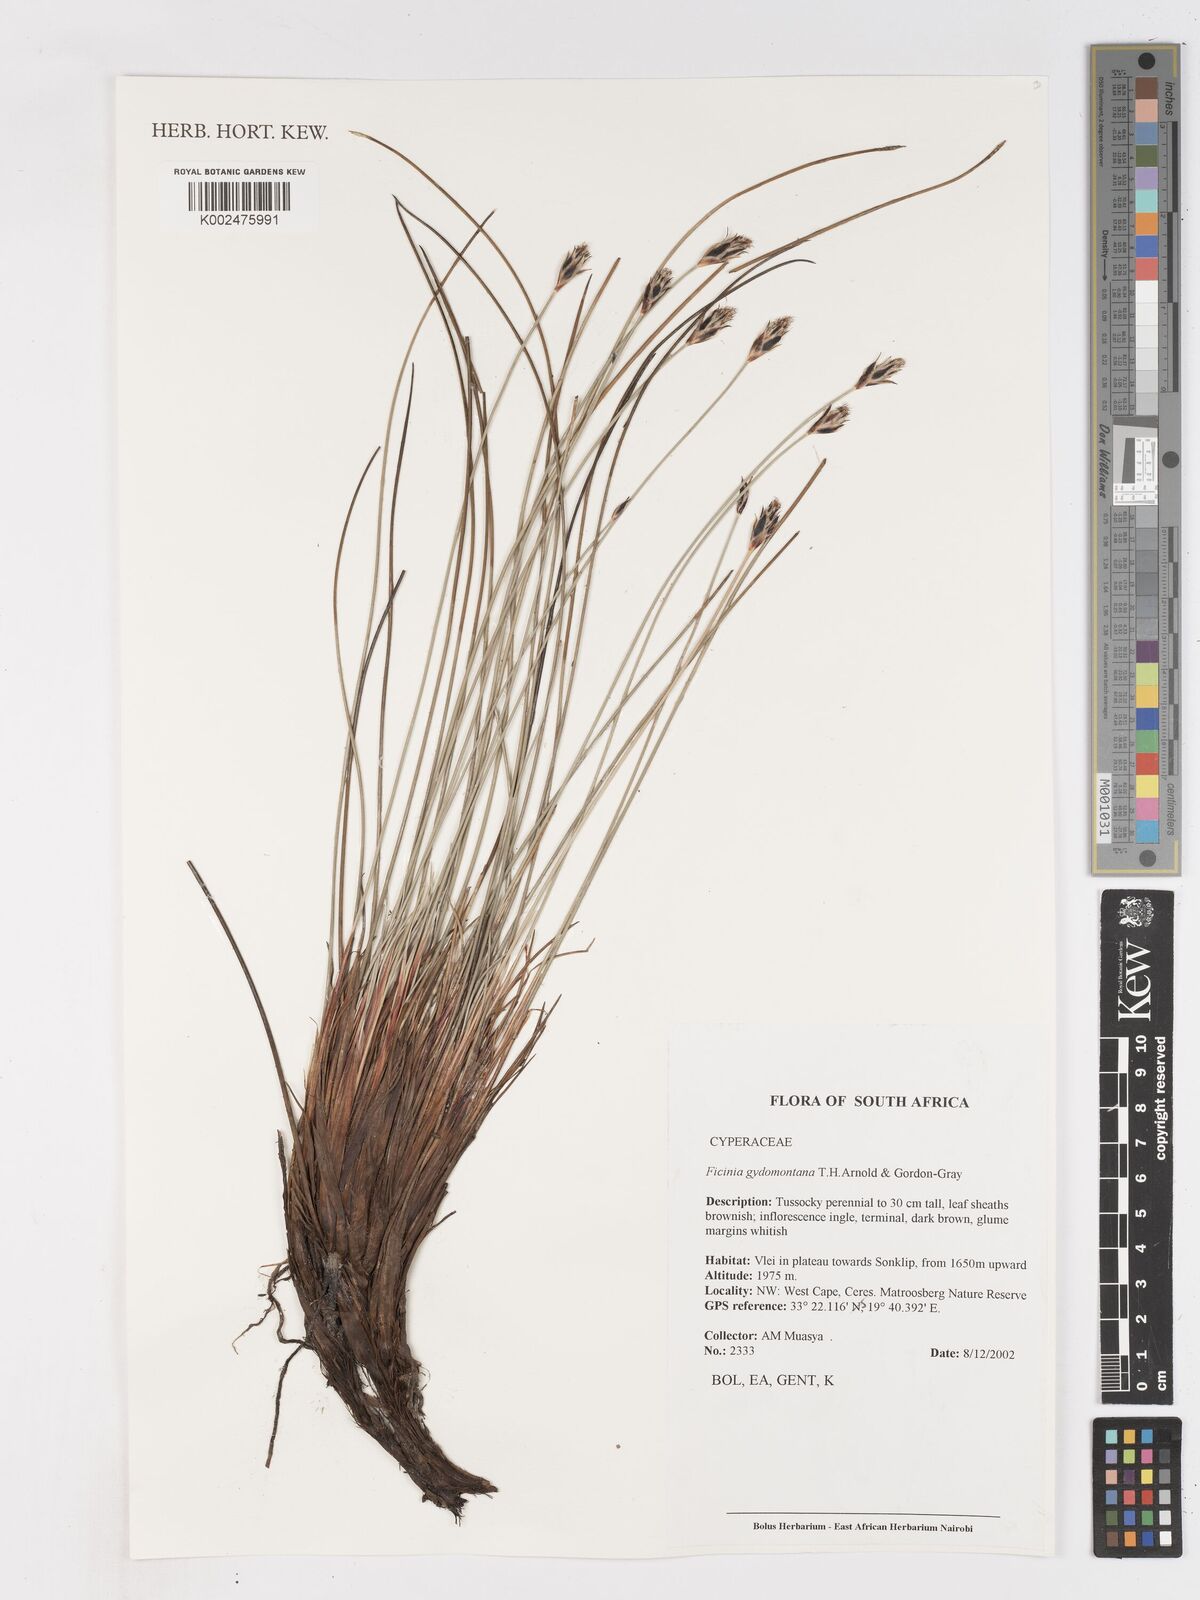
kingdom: Plantae
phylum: Tracheophyta
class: Liliopsida
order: Poales
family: Cyperaceae
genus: Ficinia
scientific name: Ficinia gydomontana
